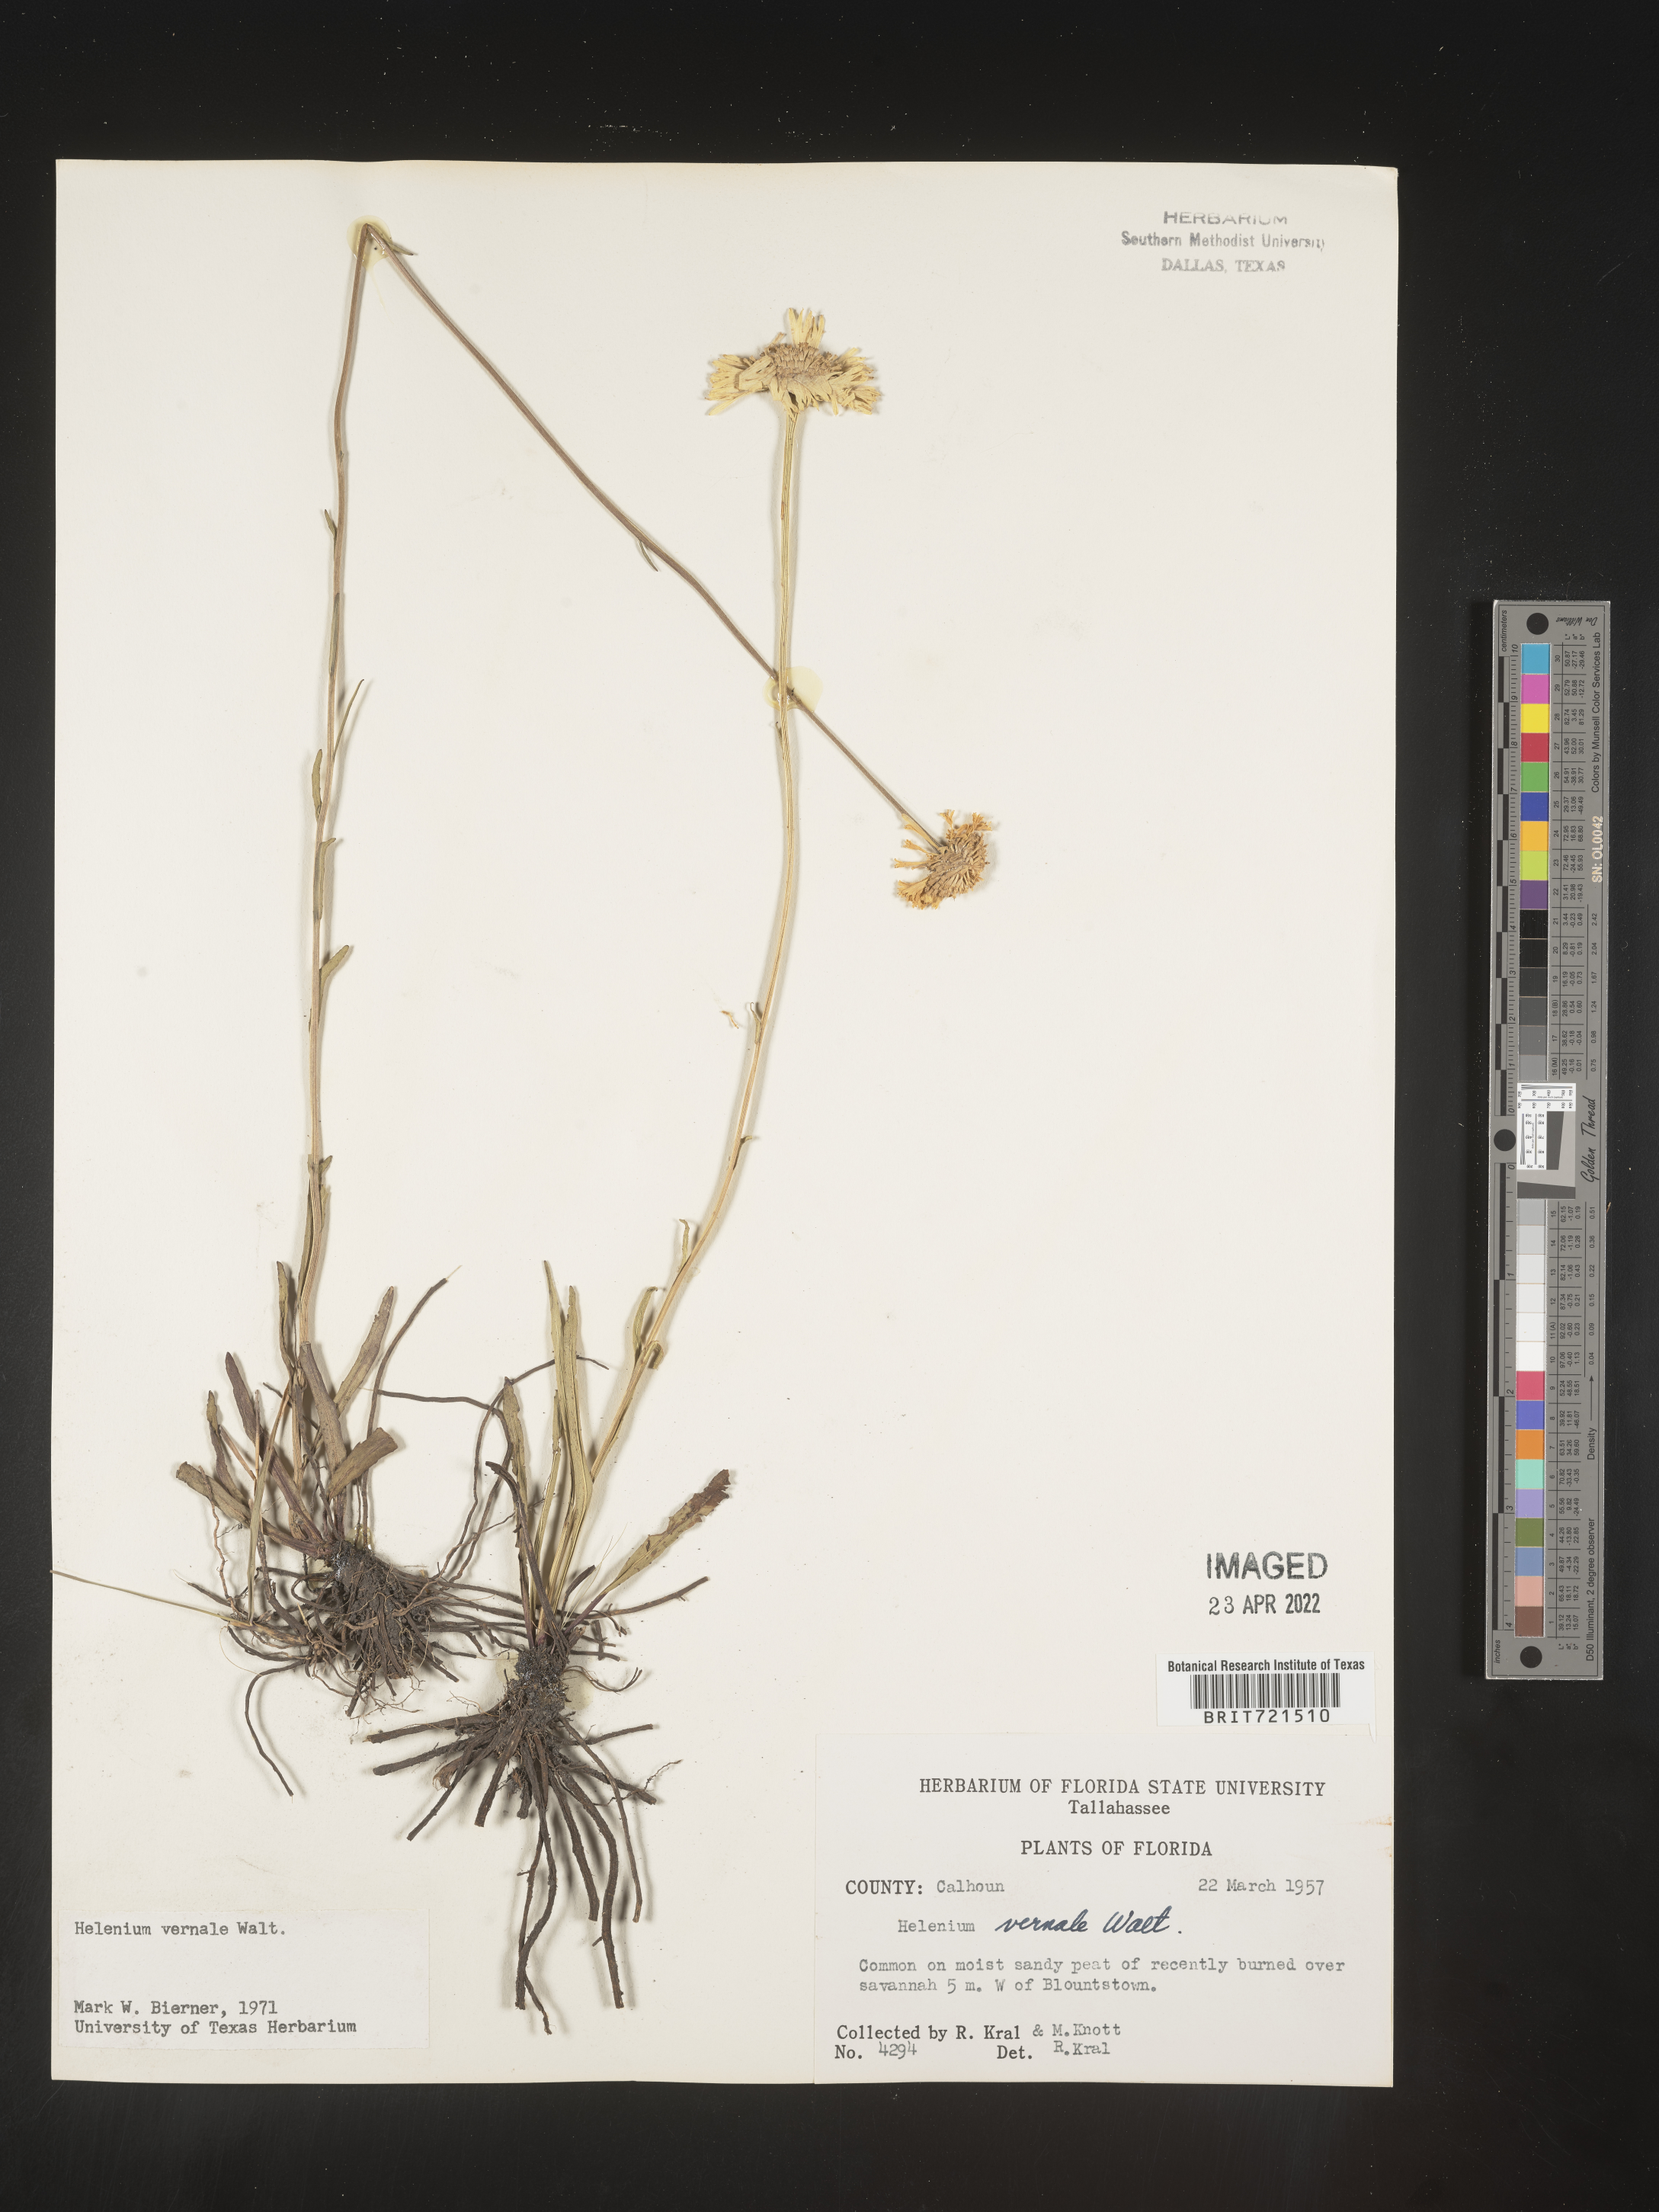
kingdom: Plantae
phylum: Tracheophyta
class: Magnoliopsida
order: Asterales
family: Asteraceae
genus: Helenium
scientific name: Helenium vernale
